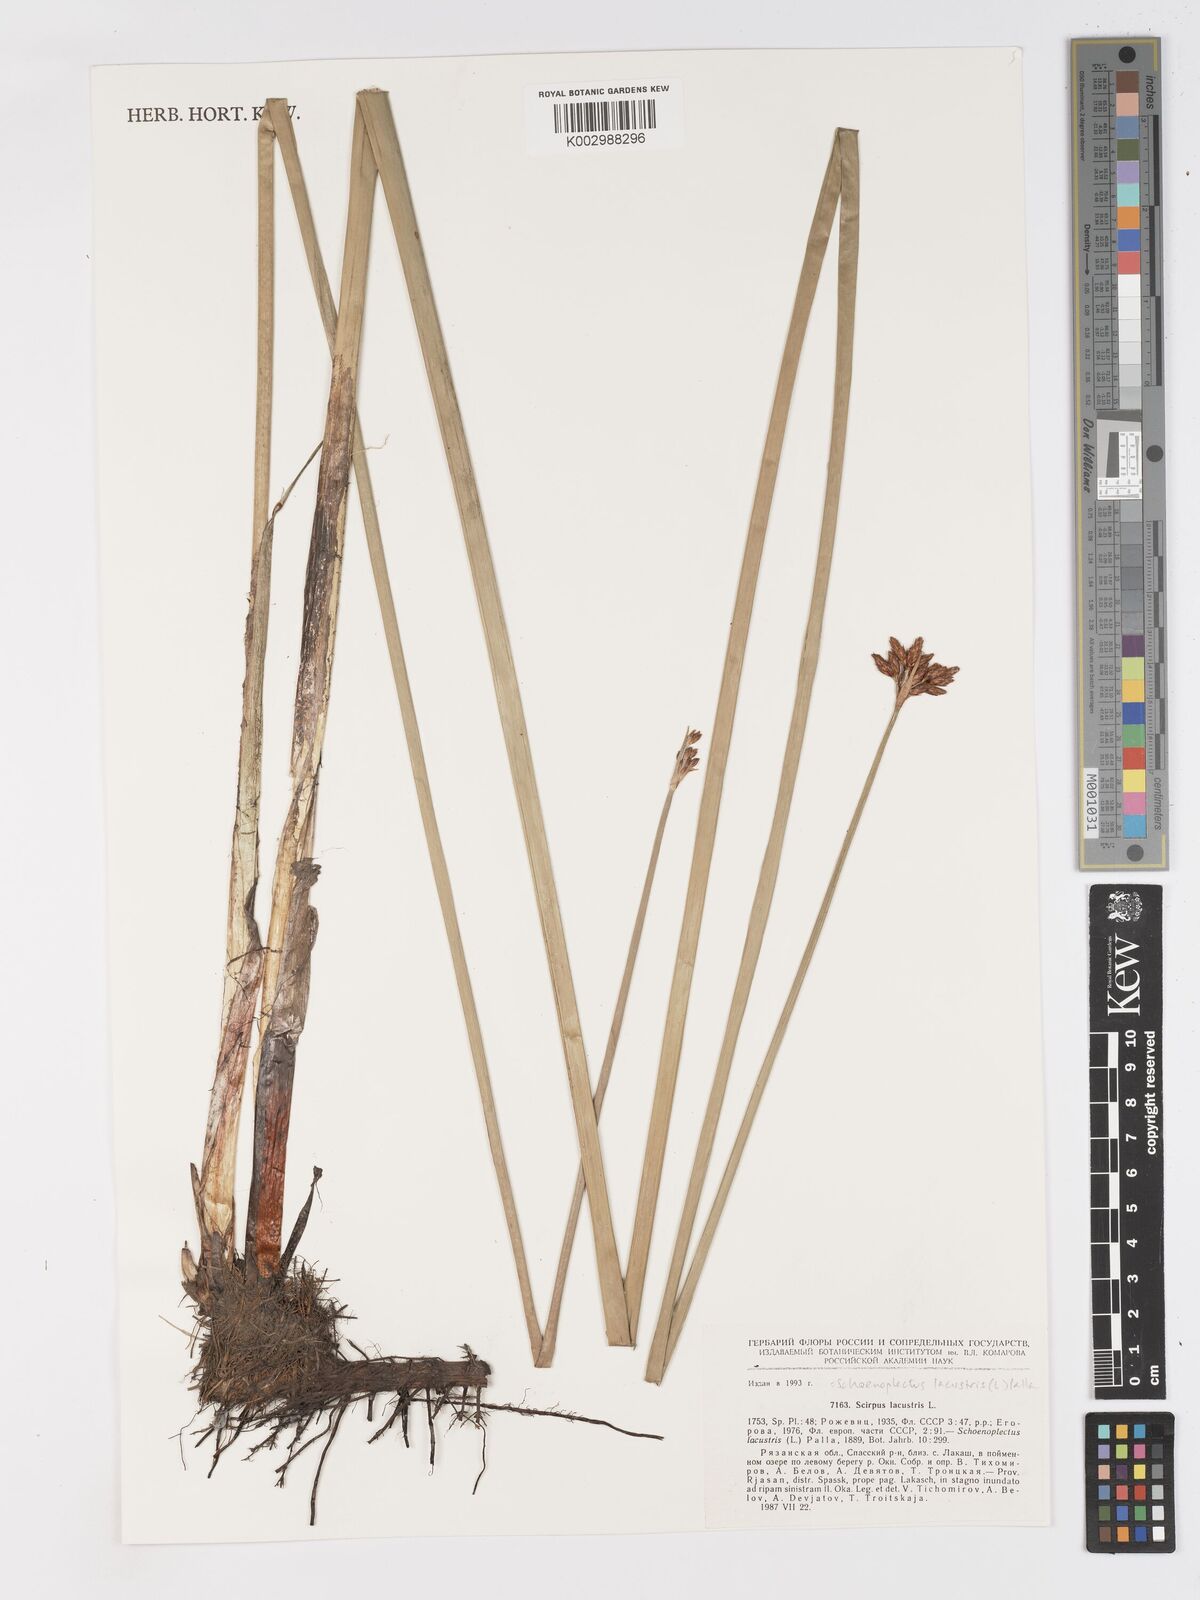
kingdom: Plantae
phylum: Tracheophyta
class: Liliopsida
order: Poales
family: Cyperaceae
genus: Schoenoplectus
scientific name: Schoenoplectus lacustris
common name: Common club-rush
